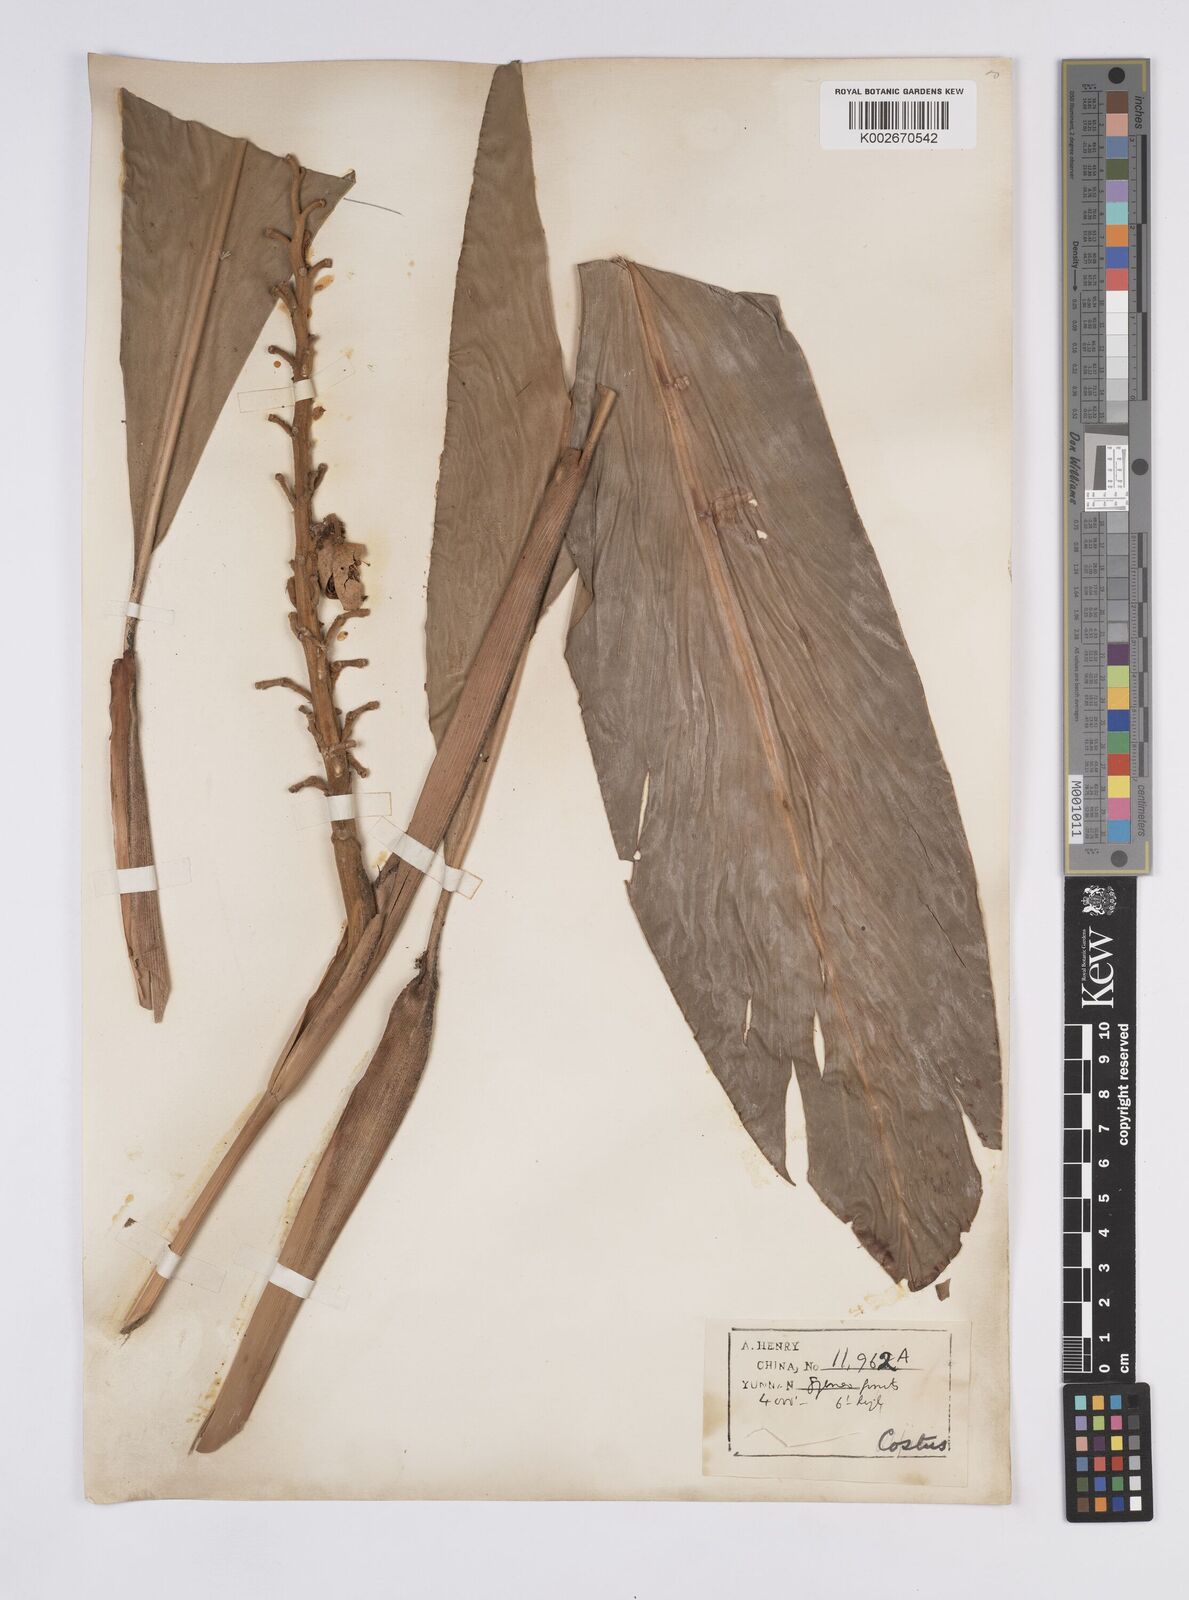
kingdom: Plantae
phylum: Tracheophyta
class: Liliopsida
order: Zingiberales
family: Zingiberaceae
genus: Alpinia
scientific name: Alpinia roxburghii
